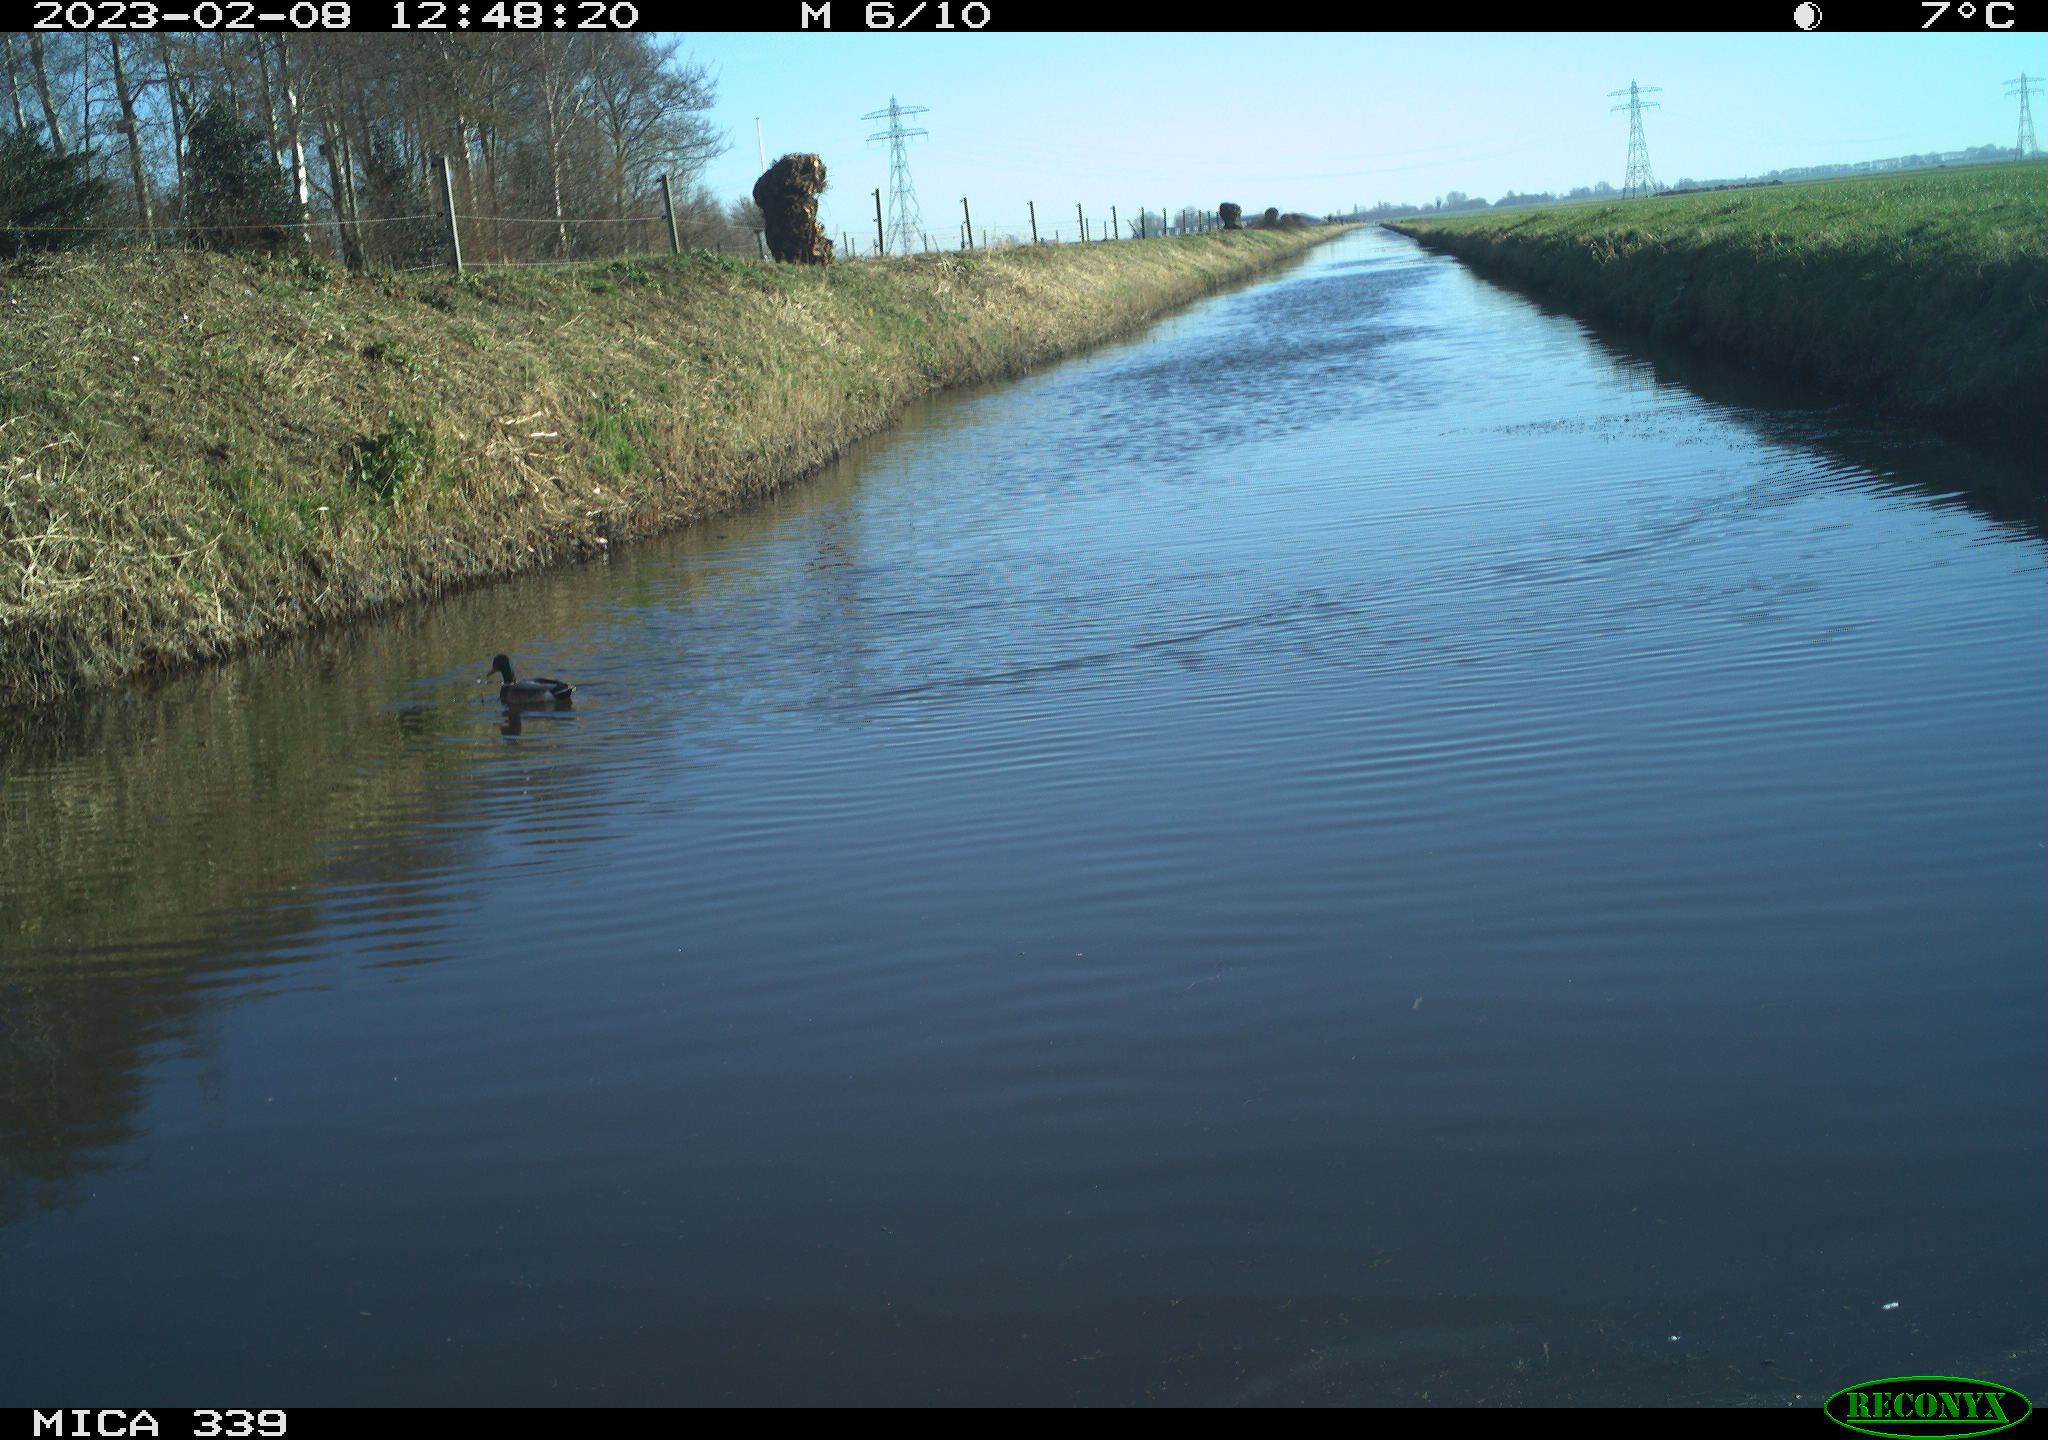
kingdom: Animalia
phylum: Chordata
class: Aves
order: Anseriformes
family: Anatidae
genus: Anas
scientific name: Anas
